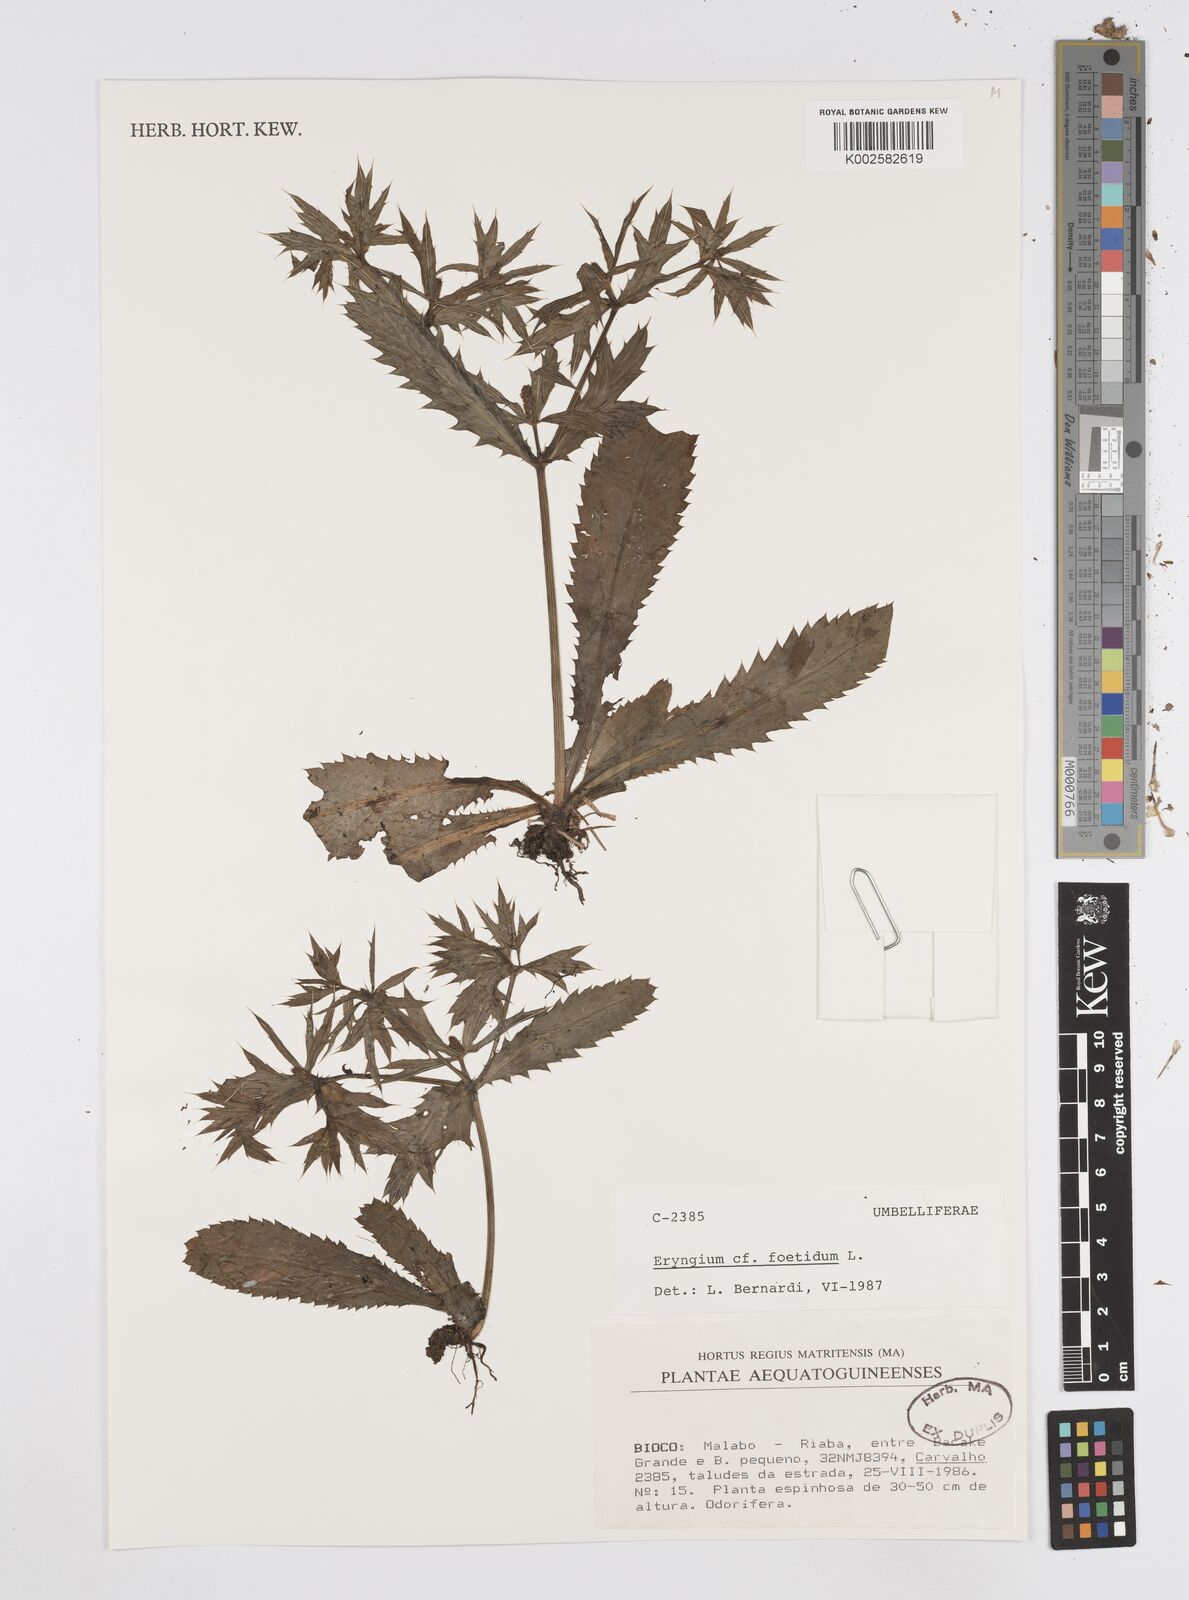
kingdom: Plantae
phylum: Tracheophyta
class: Magnoliopsida
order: Apiales
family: Apiaceae
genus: Eryngium
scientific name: Eryngium foetidum
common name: Fitweed
